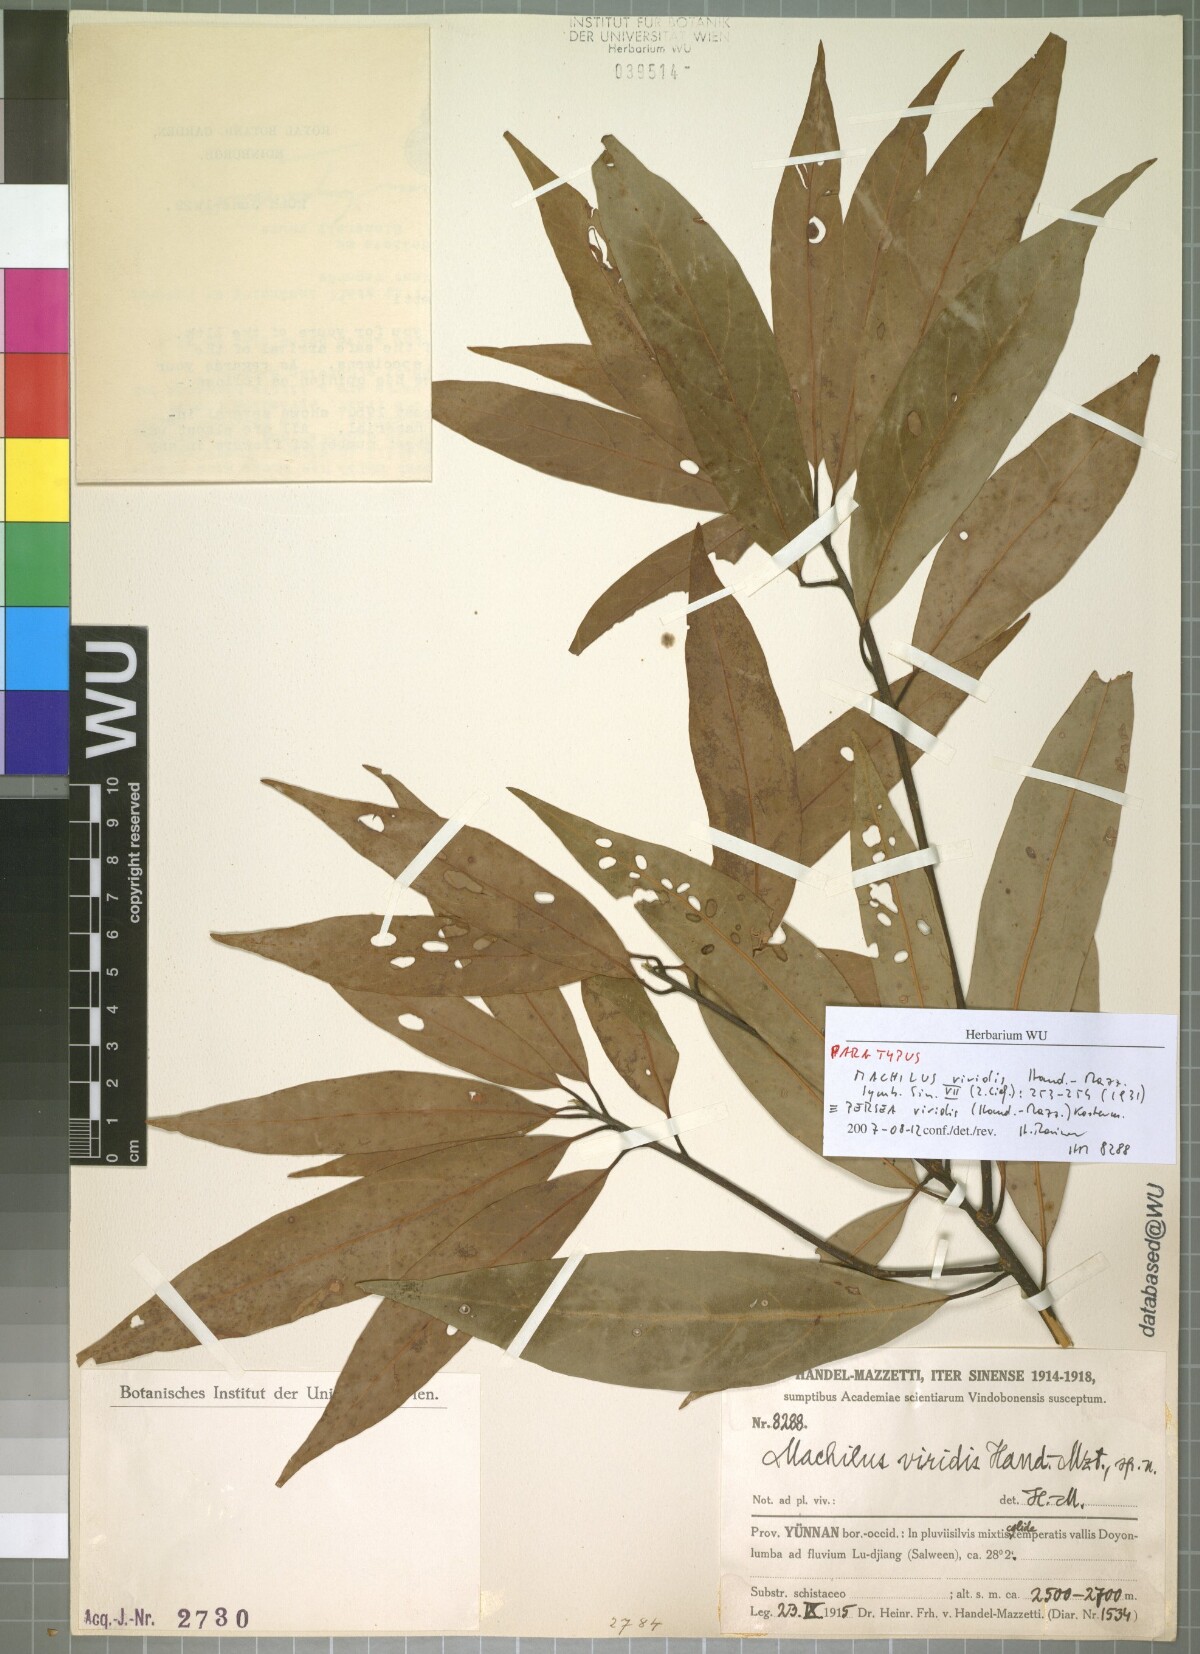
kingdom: Plantae
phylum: Tracheophyta
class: Magnoliopsida
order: Laurales
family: Lauraceae
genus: Machilus
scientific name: Machilus viridis
